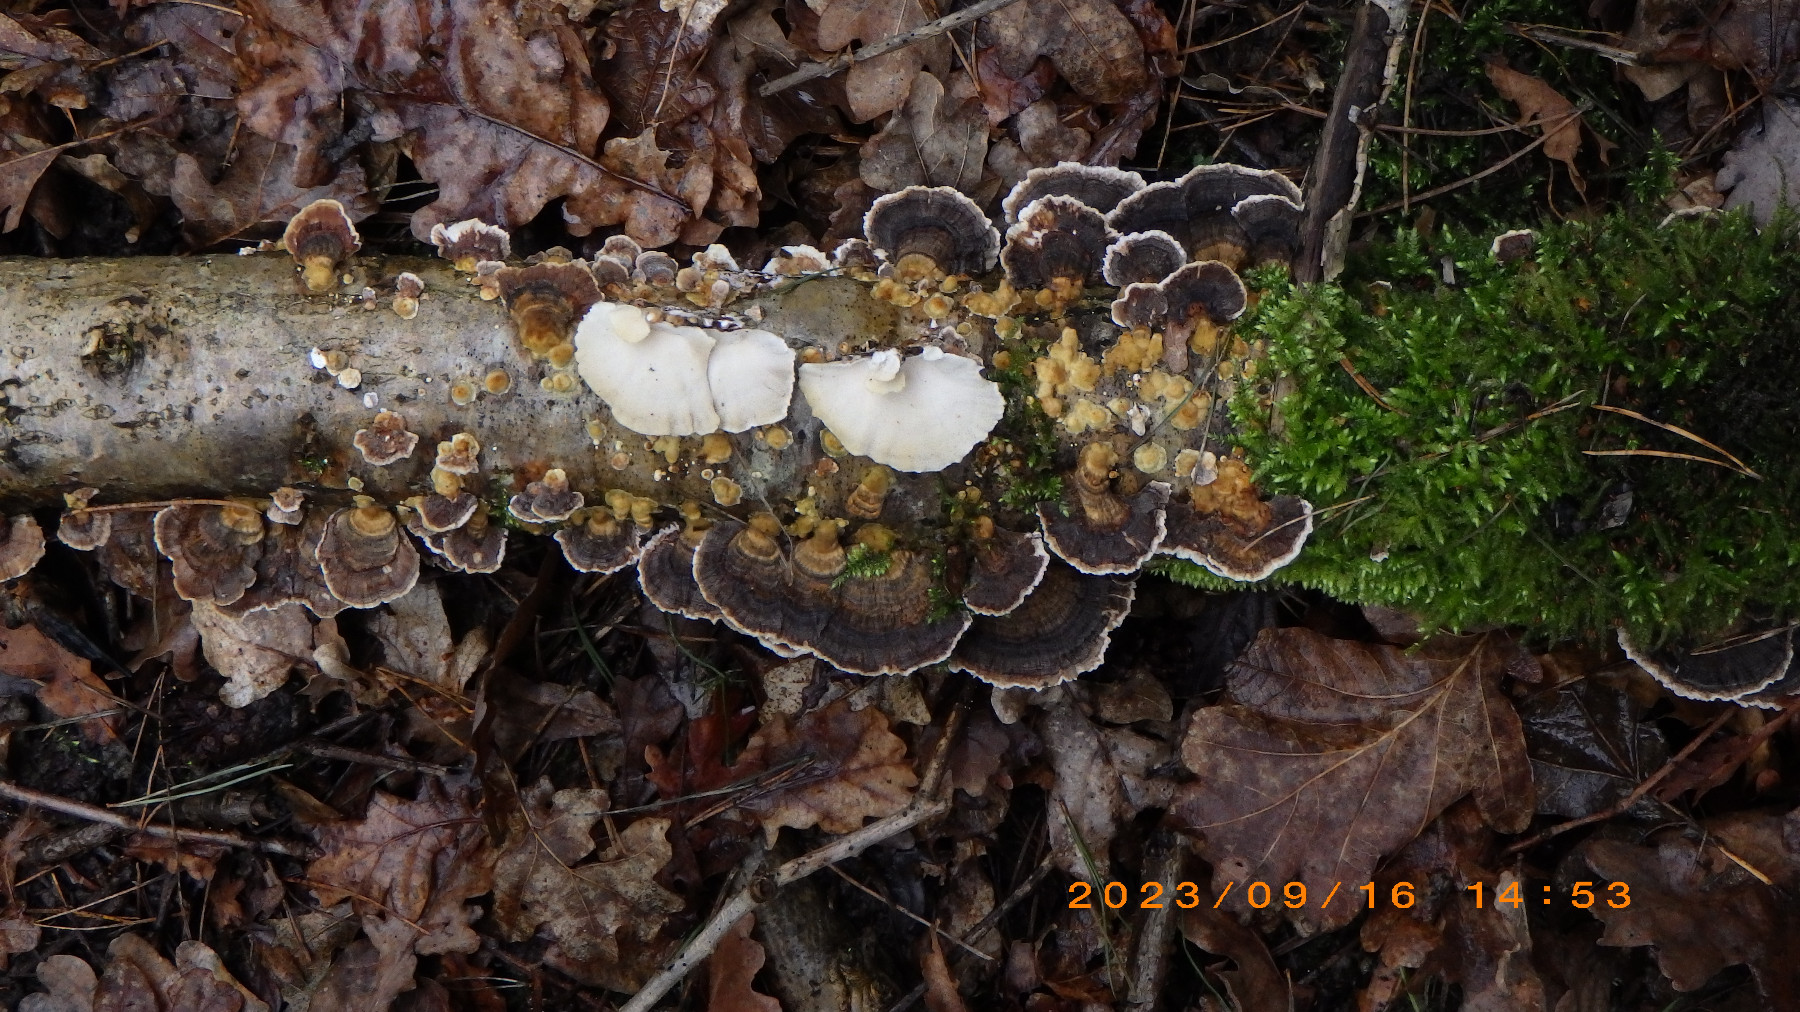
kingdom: Fungi
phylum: Basidiomycota
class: Agaricomycetes
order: Polyporales
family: Polyporaceae
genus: Trametes
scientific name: Trametes versicolor
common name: broget læderporesvamp
